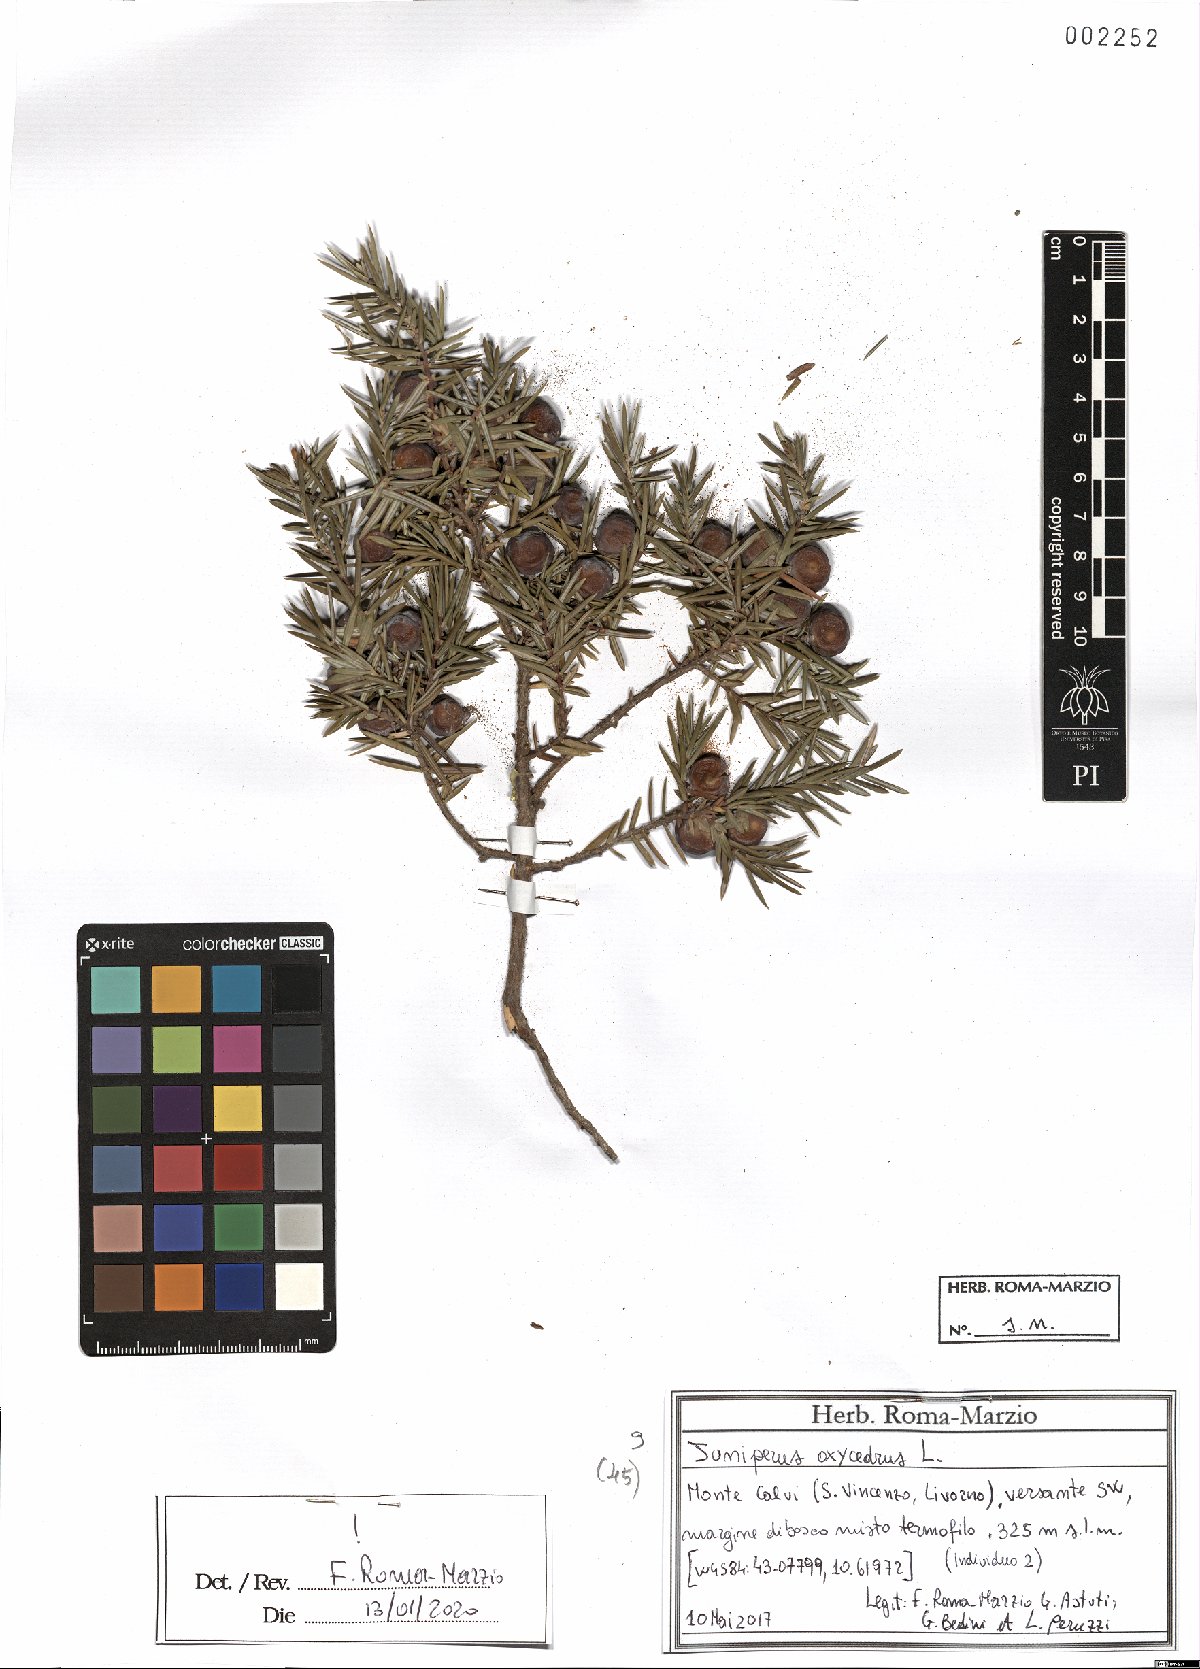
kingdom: Plantae
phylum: Tracheophyta
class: Pinopsida
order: Pinales
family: Cupressaceae
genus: Juniperus
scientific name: Juniperus oxycedrus
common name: Prickly juniper
